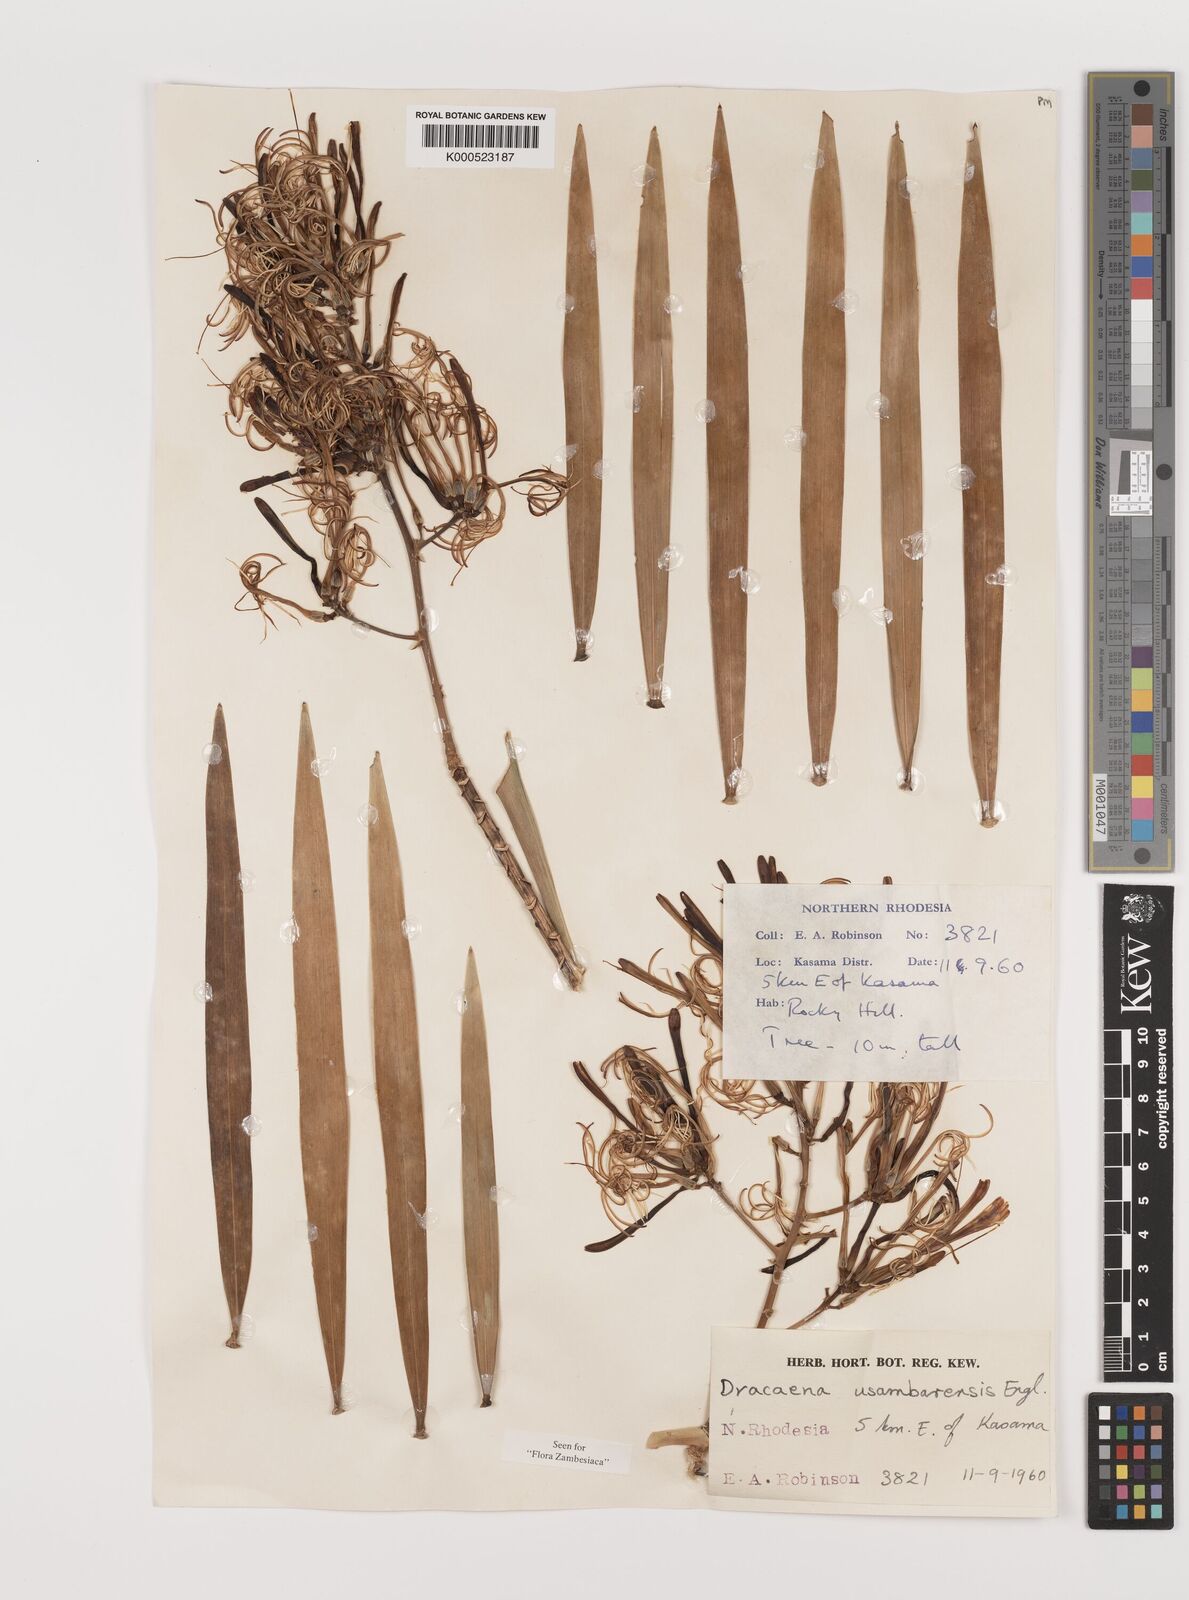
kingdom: Plantae
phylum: Tracheophyta
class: Liliopsida
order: Asparagales
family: Asparagaceae
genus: Dracaena
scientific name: Dracaena usambarensis
